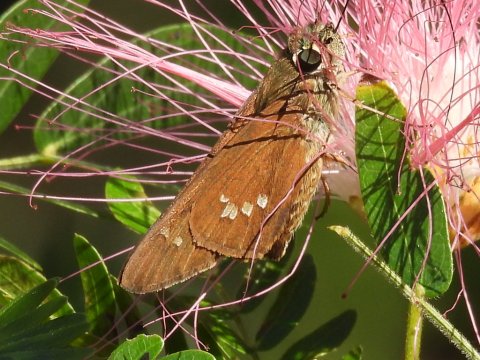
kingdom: Animalia
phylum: Arthropoda
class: Insecta
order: Lepidoptera
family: Hesperiidae
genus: Calpodes
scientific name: Calpodes ethlius
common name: Brazilian Skipper
